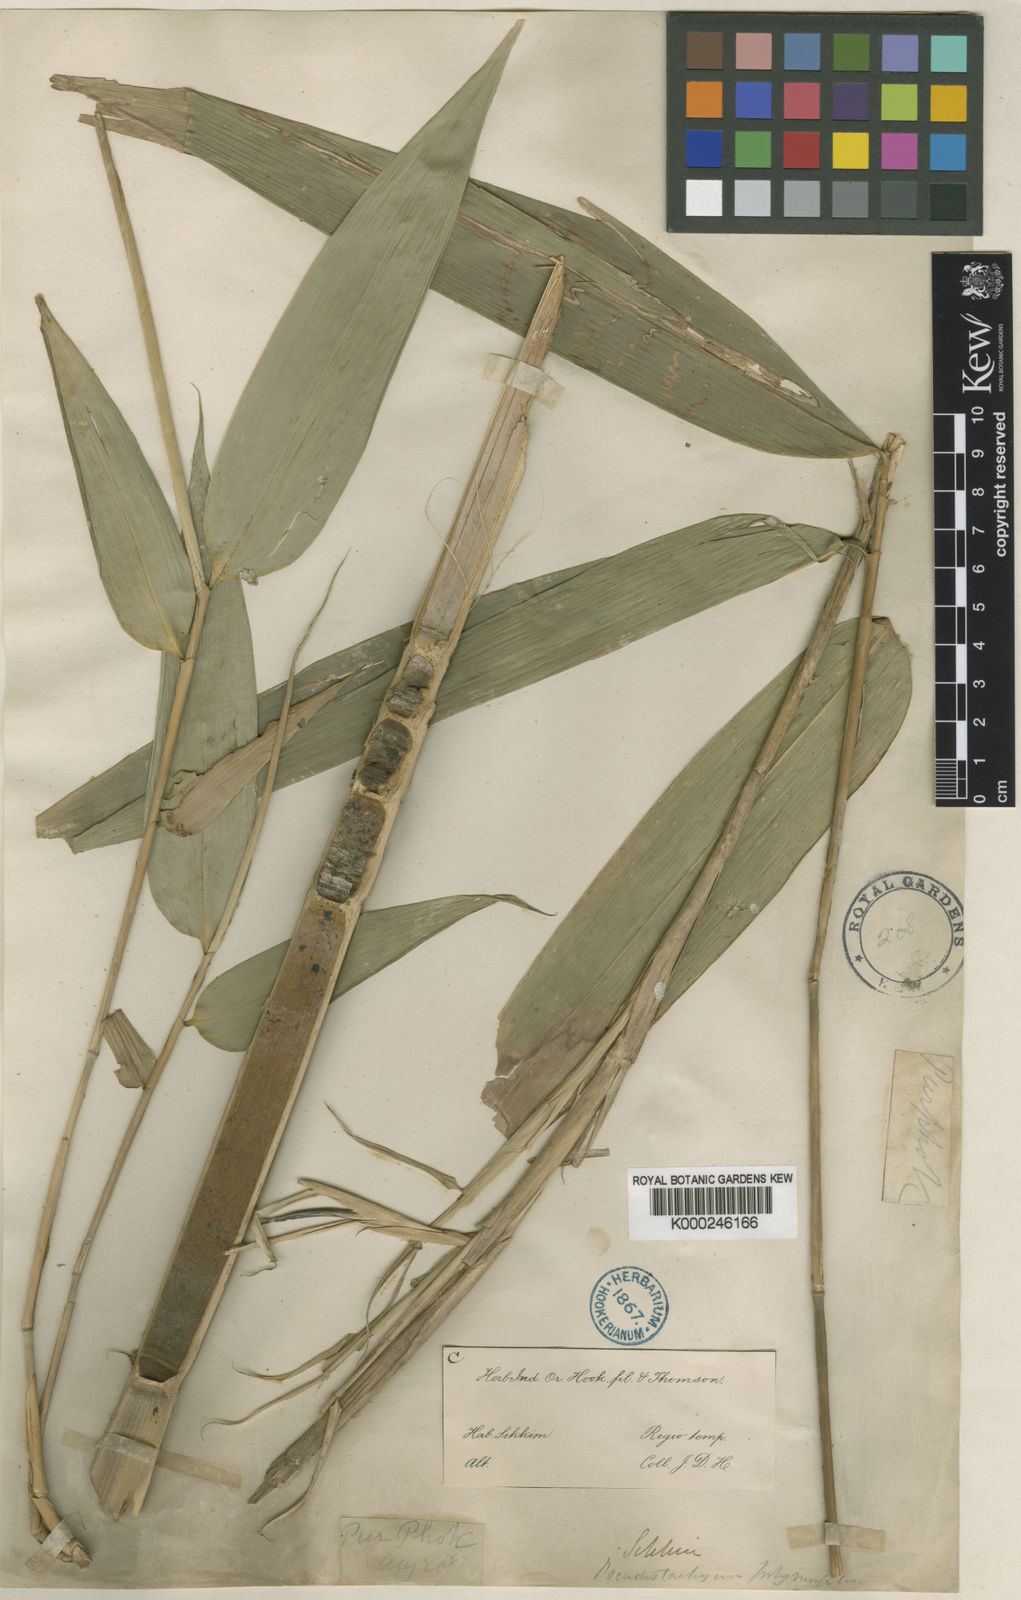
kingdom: Plantae
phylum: Tracheophyta
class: Liliopsida
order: Poales
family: Poaceae
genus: Pseudostachyum
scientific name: Pseudostachyum polymorphum
